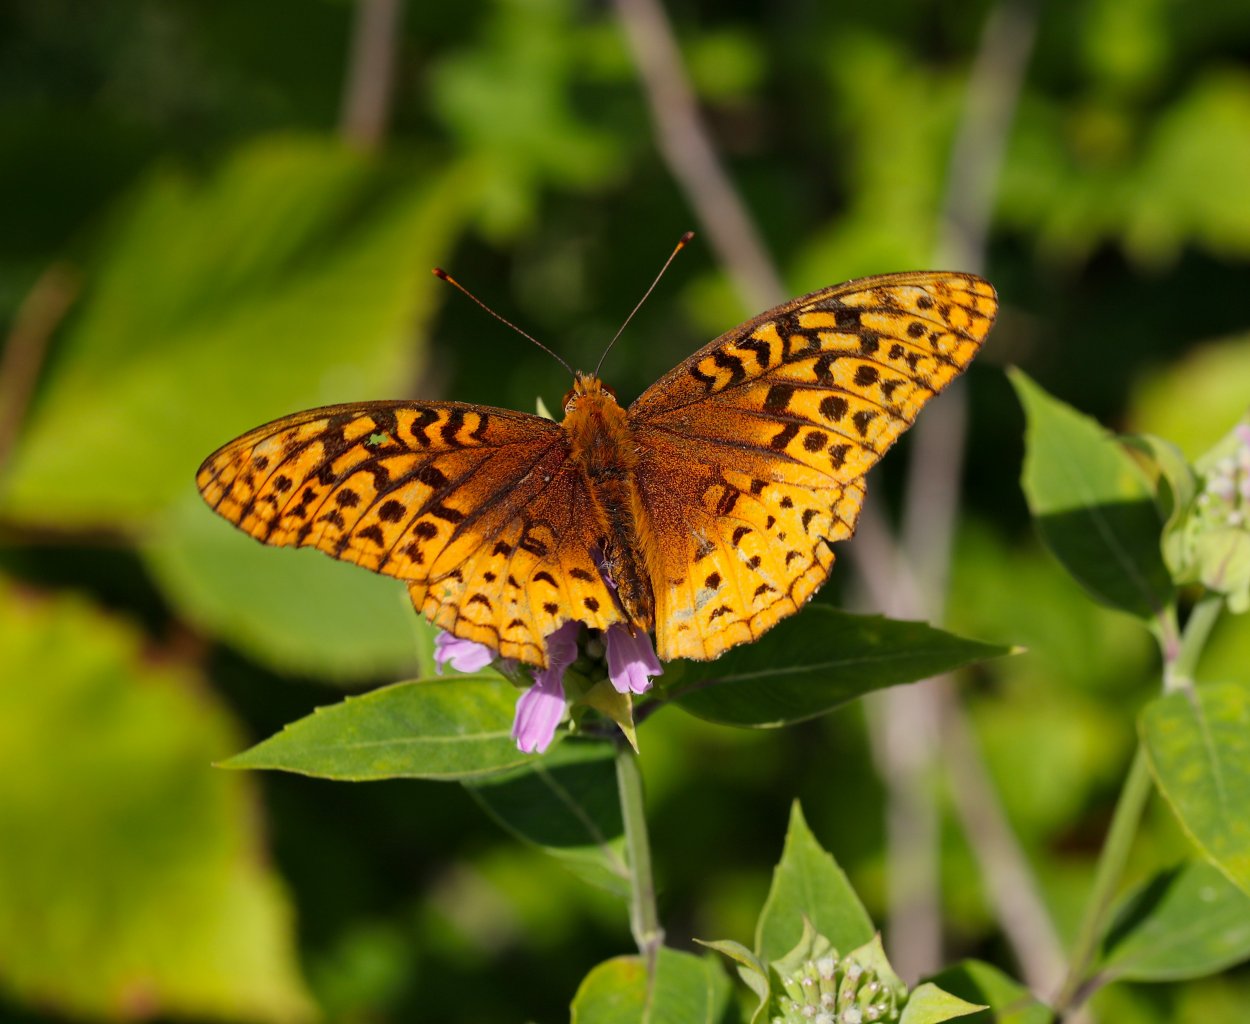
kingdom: Animalia
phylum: Arthropoda
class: Insecta
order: Lepidoptera
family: Nymphalidae
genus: Speyeria
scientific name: Speyeria cybele
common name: Great Spangled Fritillary
